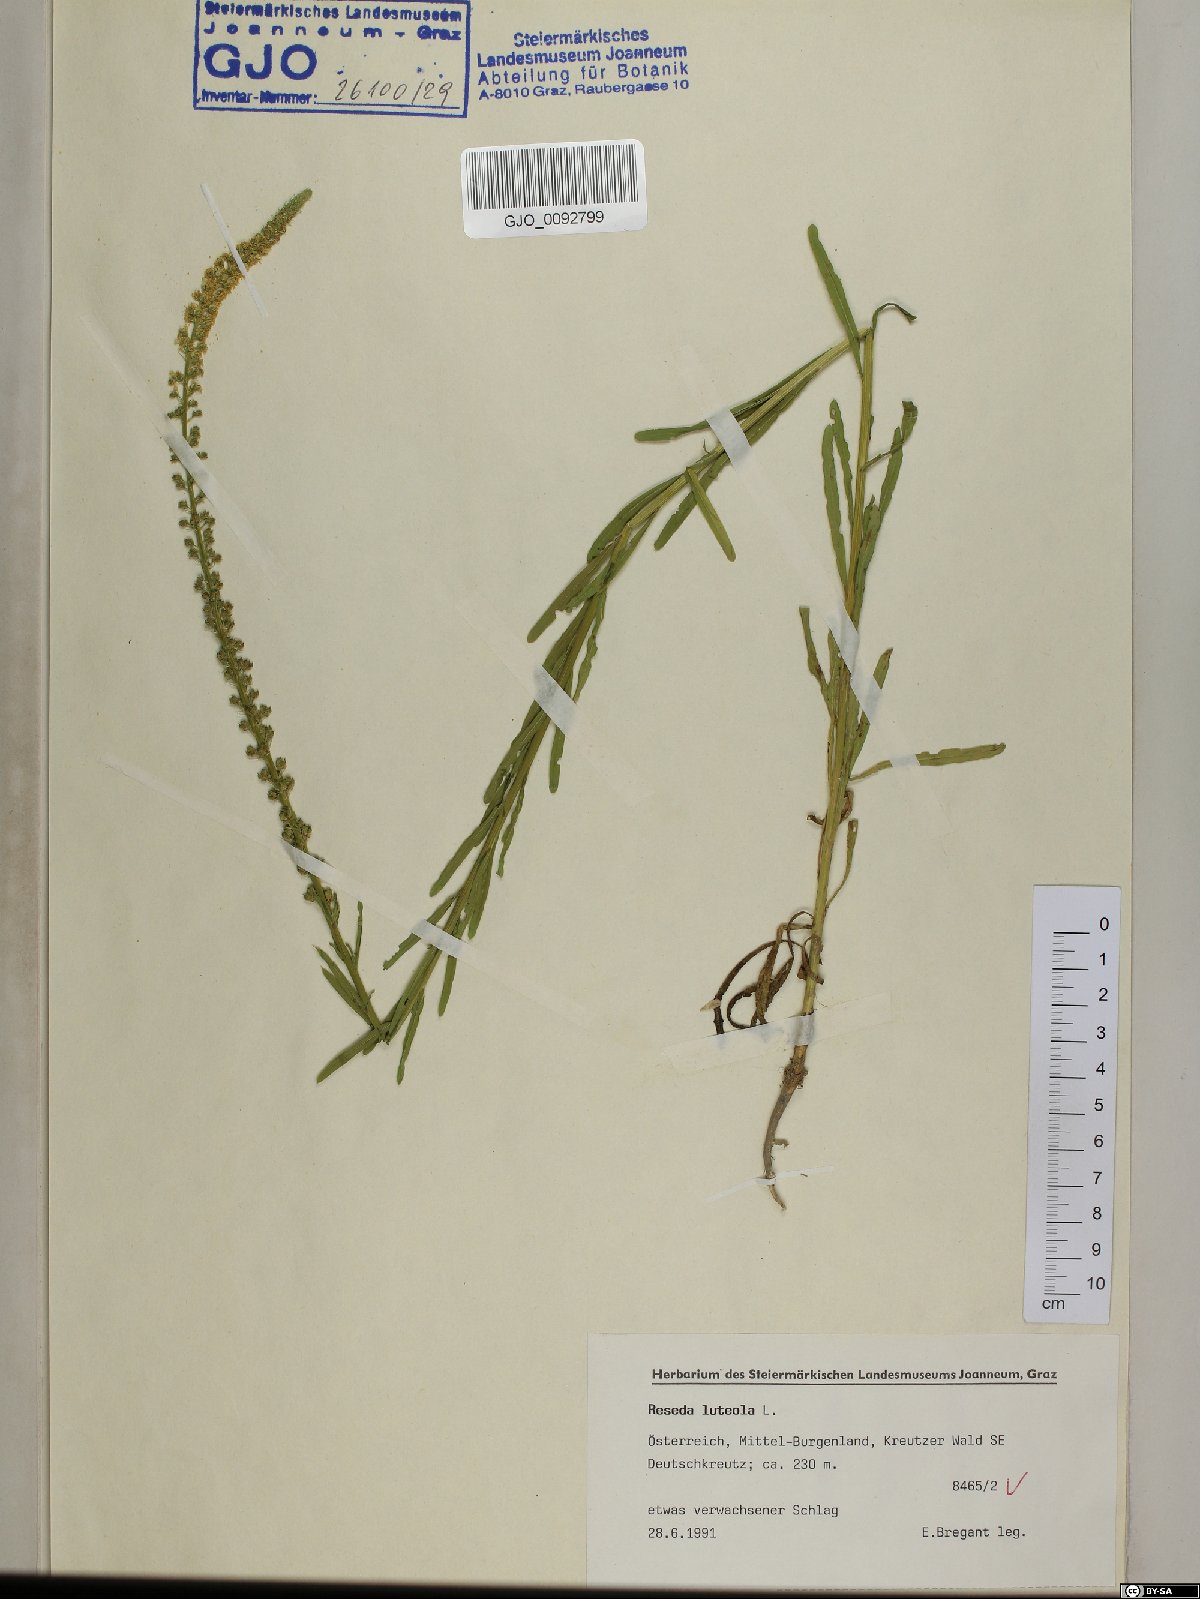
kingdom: Plantae
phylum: Tracheophyta
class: Magnoliopsida
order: Brassicales
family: Resedaceae
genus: Reseda
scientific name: Reseda luteola
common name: Weld
